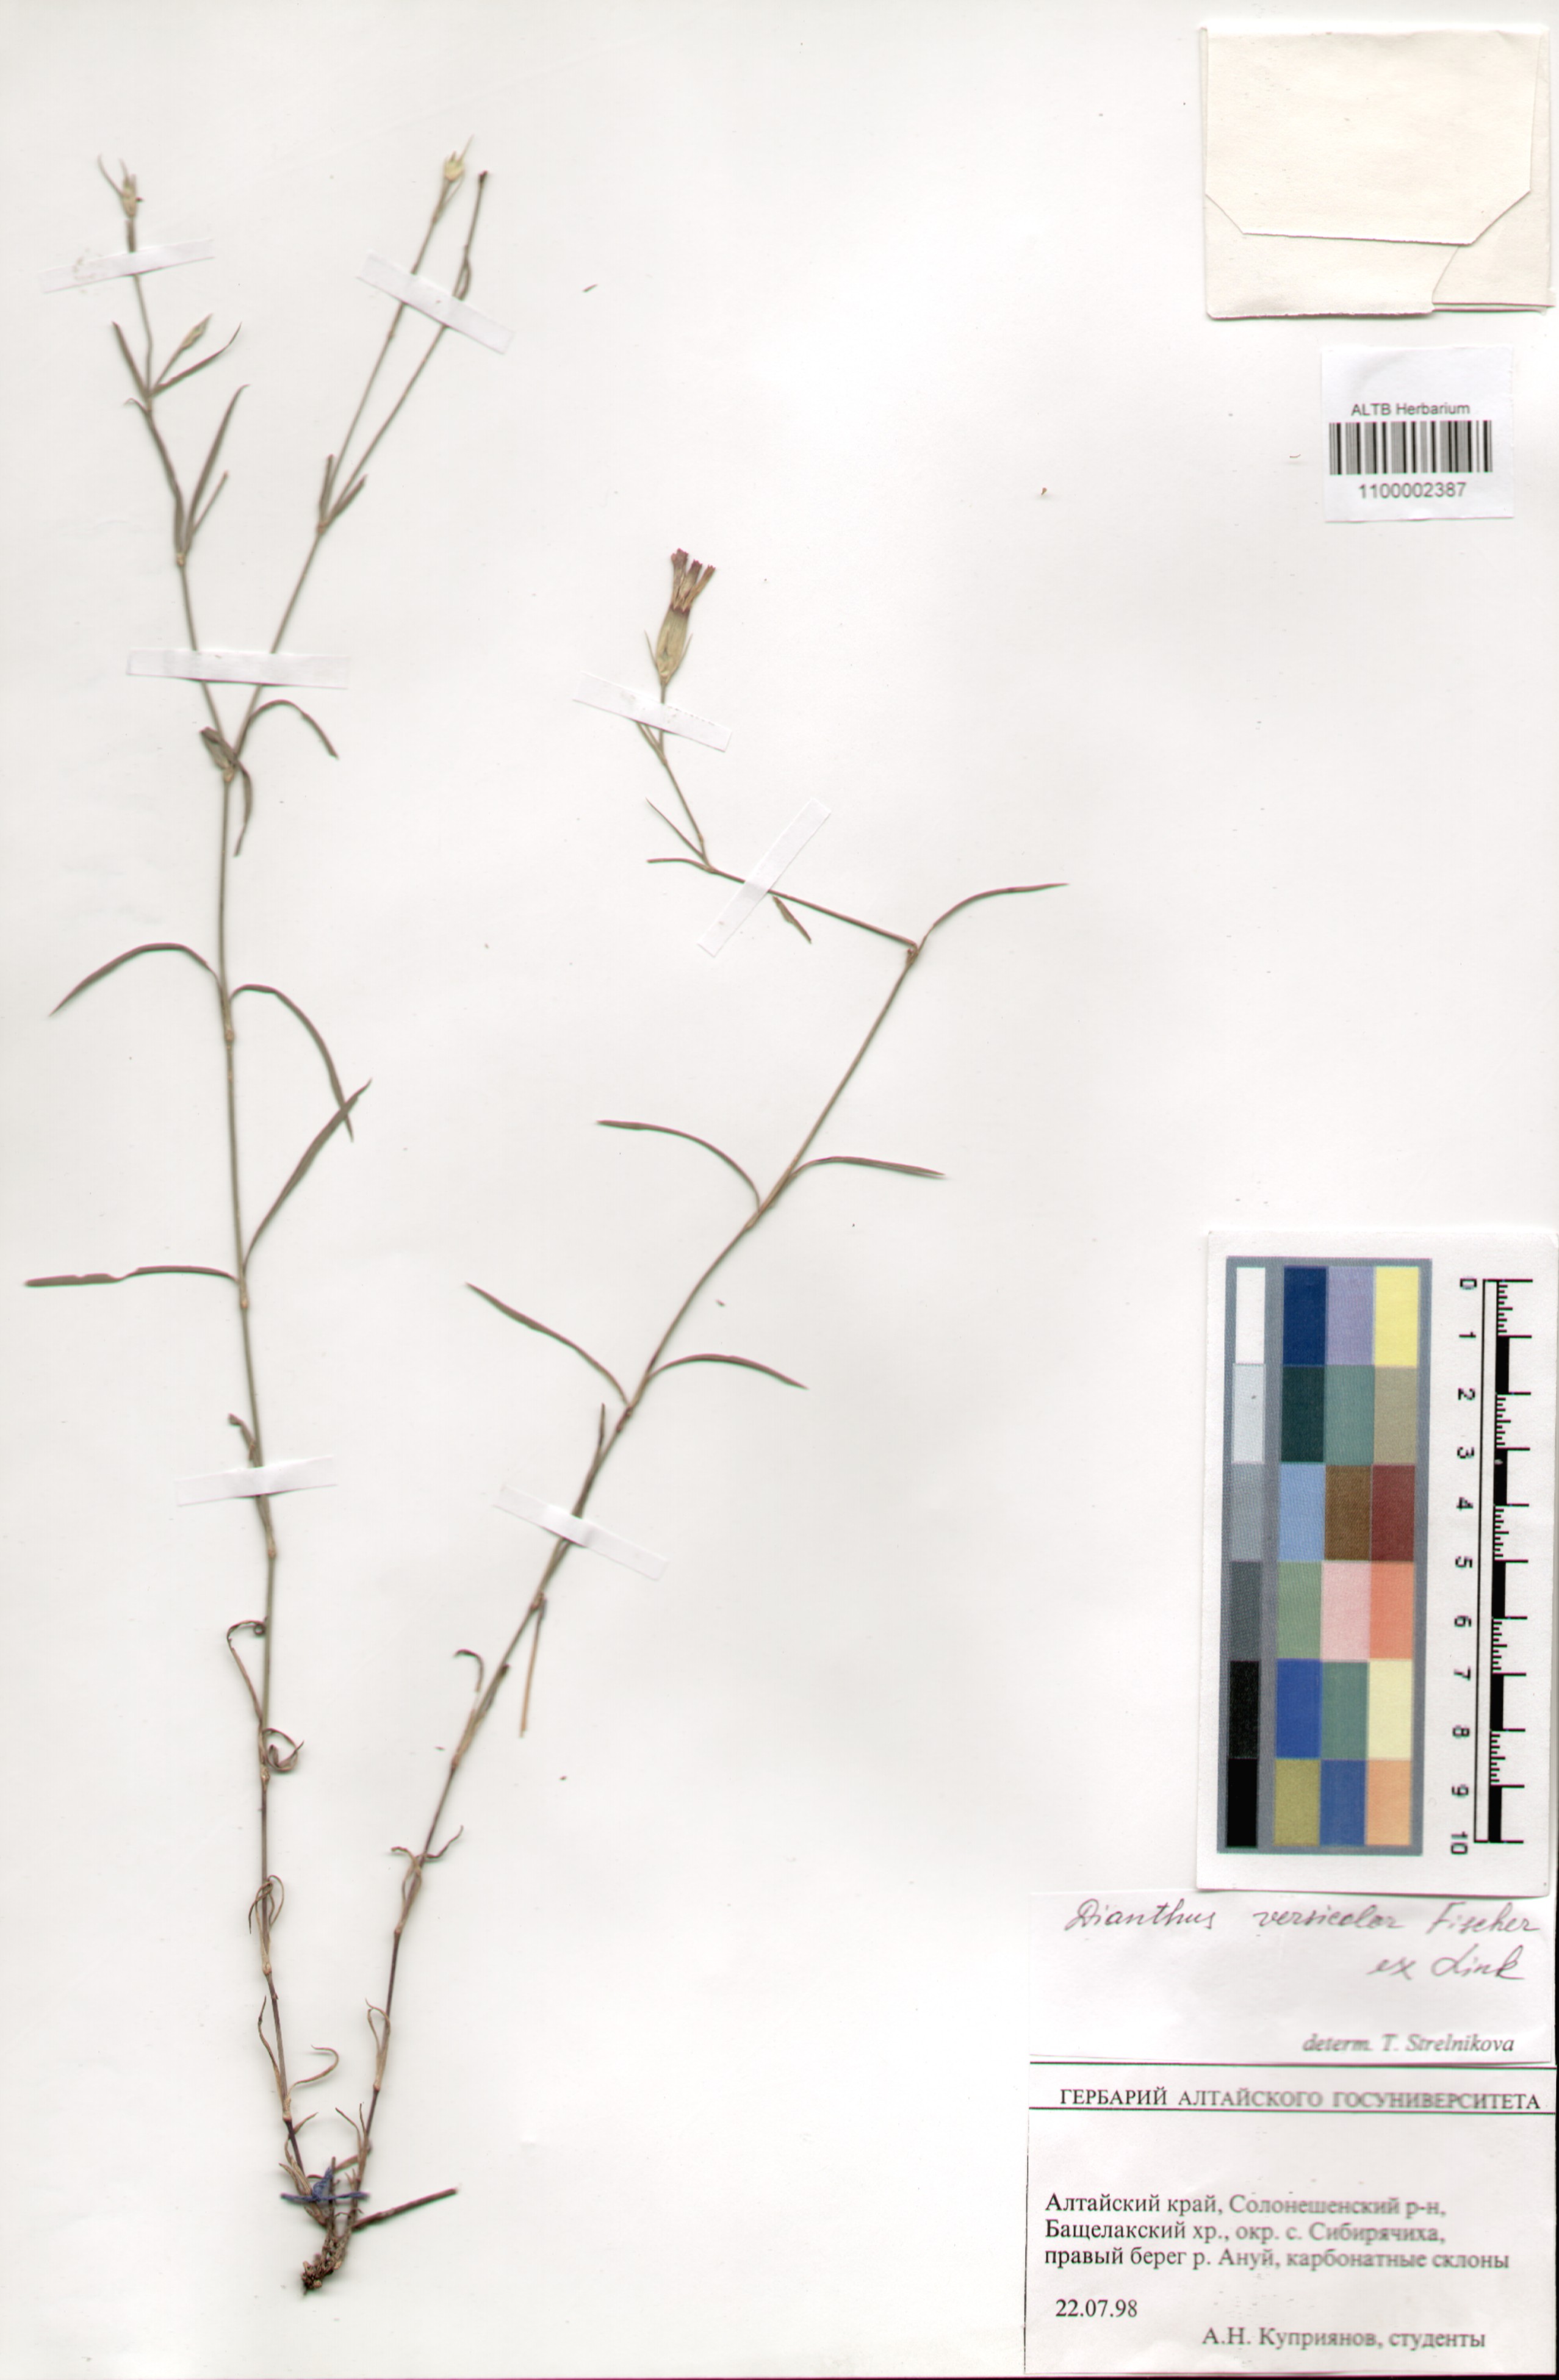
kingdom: Plantae
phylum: Tracheophyta
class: Magnoliopsida
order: Caryophyllales
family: Caryophyllaceae
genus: Dianthus
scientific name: Dianthus chinensis
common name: Rainbow pink
